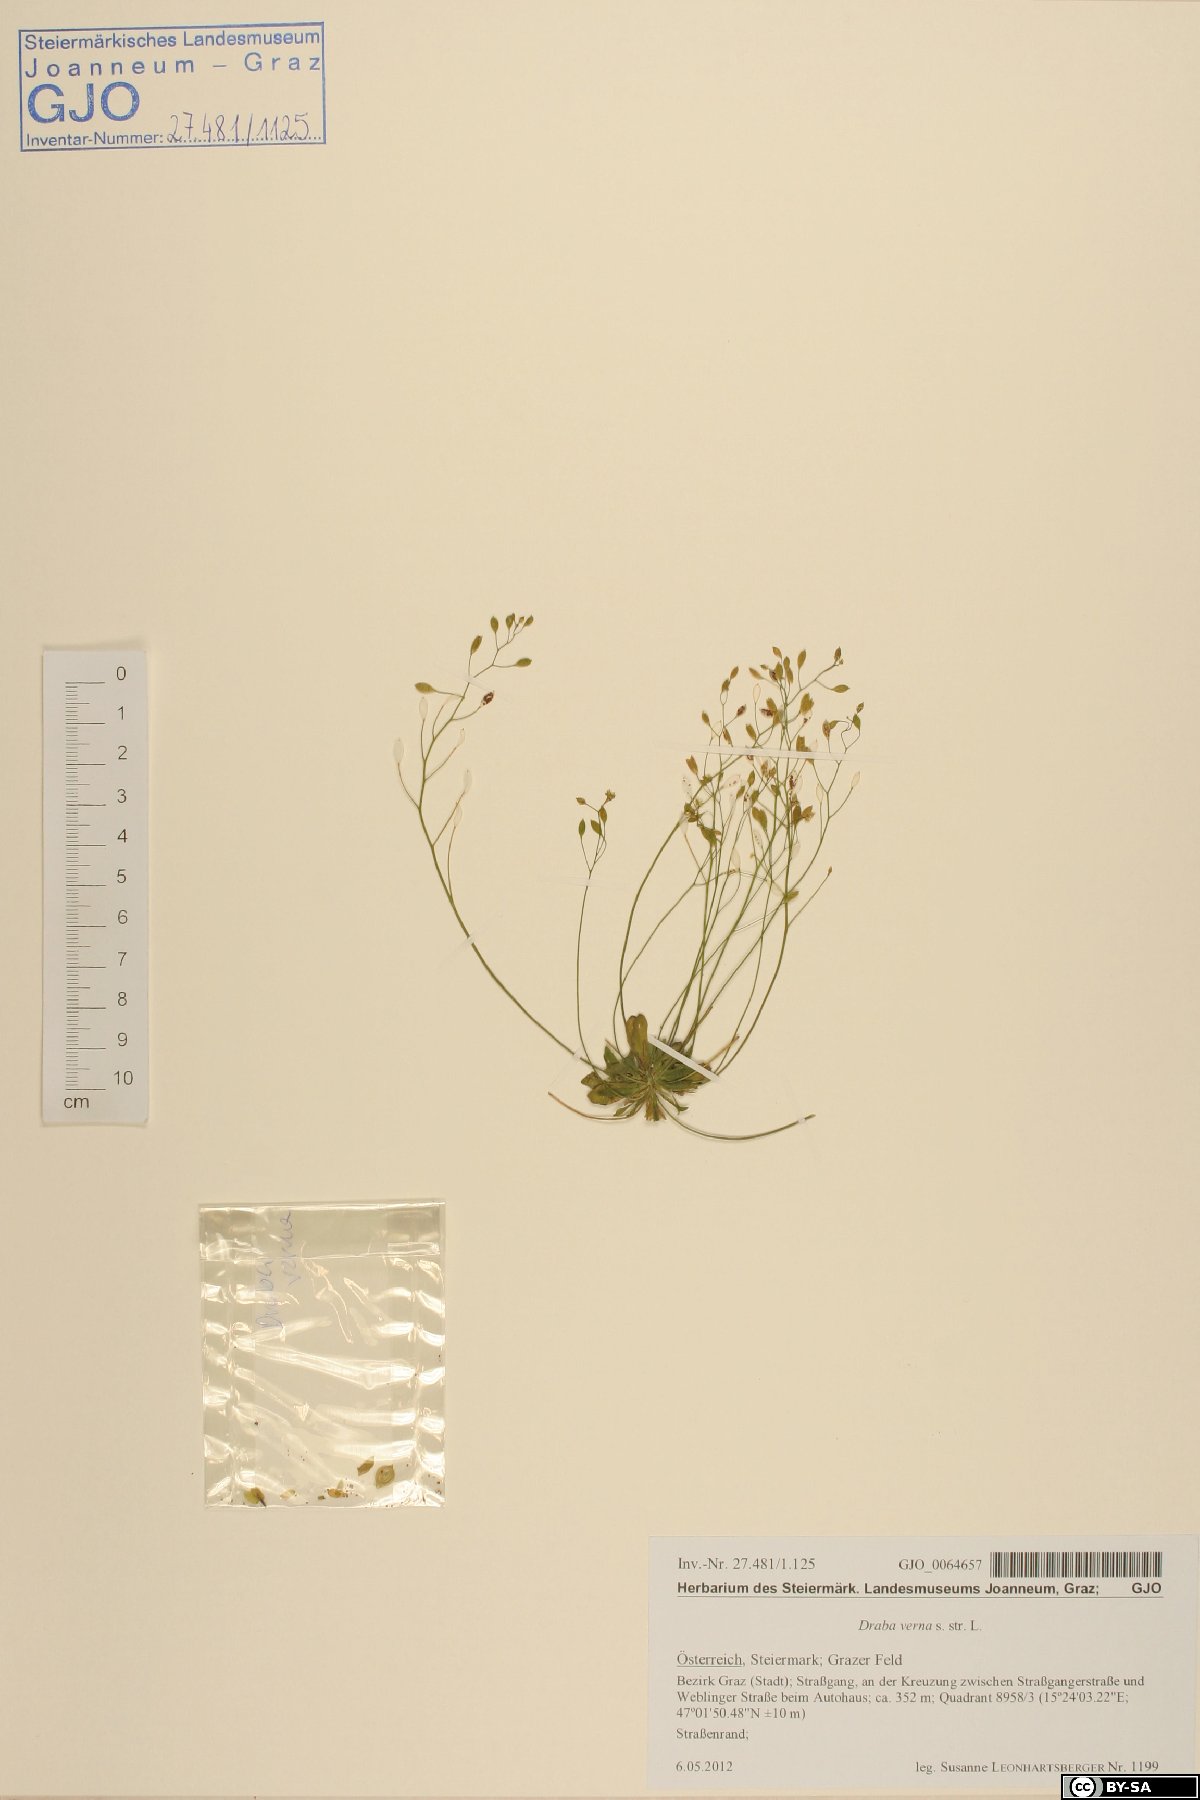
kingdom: Plantae
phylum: Tracheophyta
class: Magnoliopsida
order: Brassicales
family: Brassicaceae
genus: Draba
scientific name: Draba verna
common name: Spring draba
